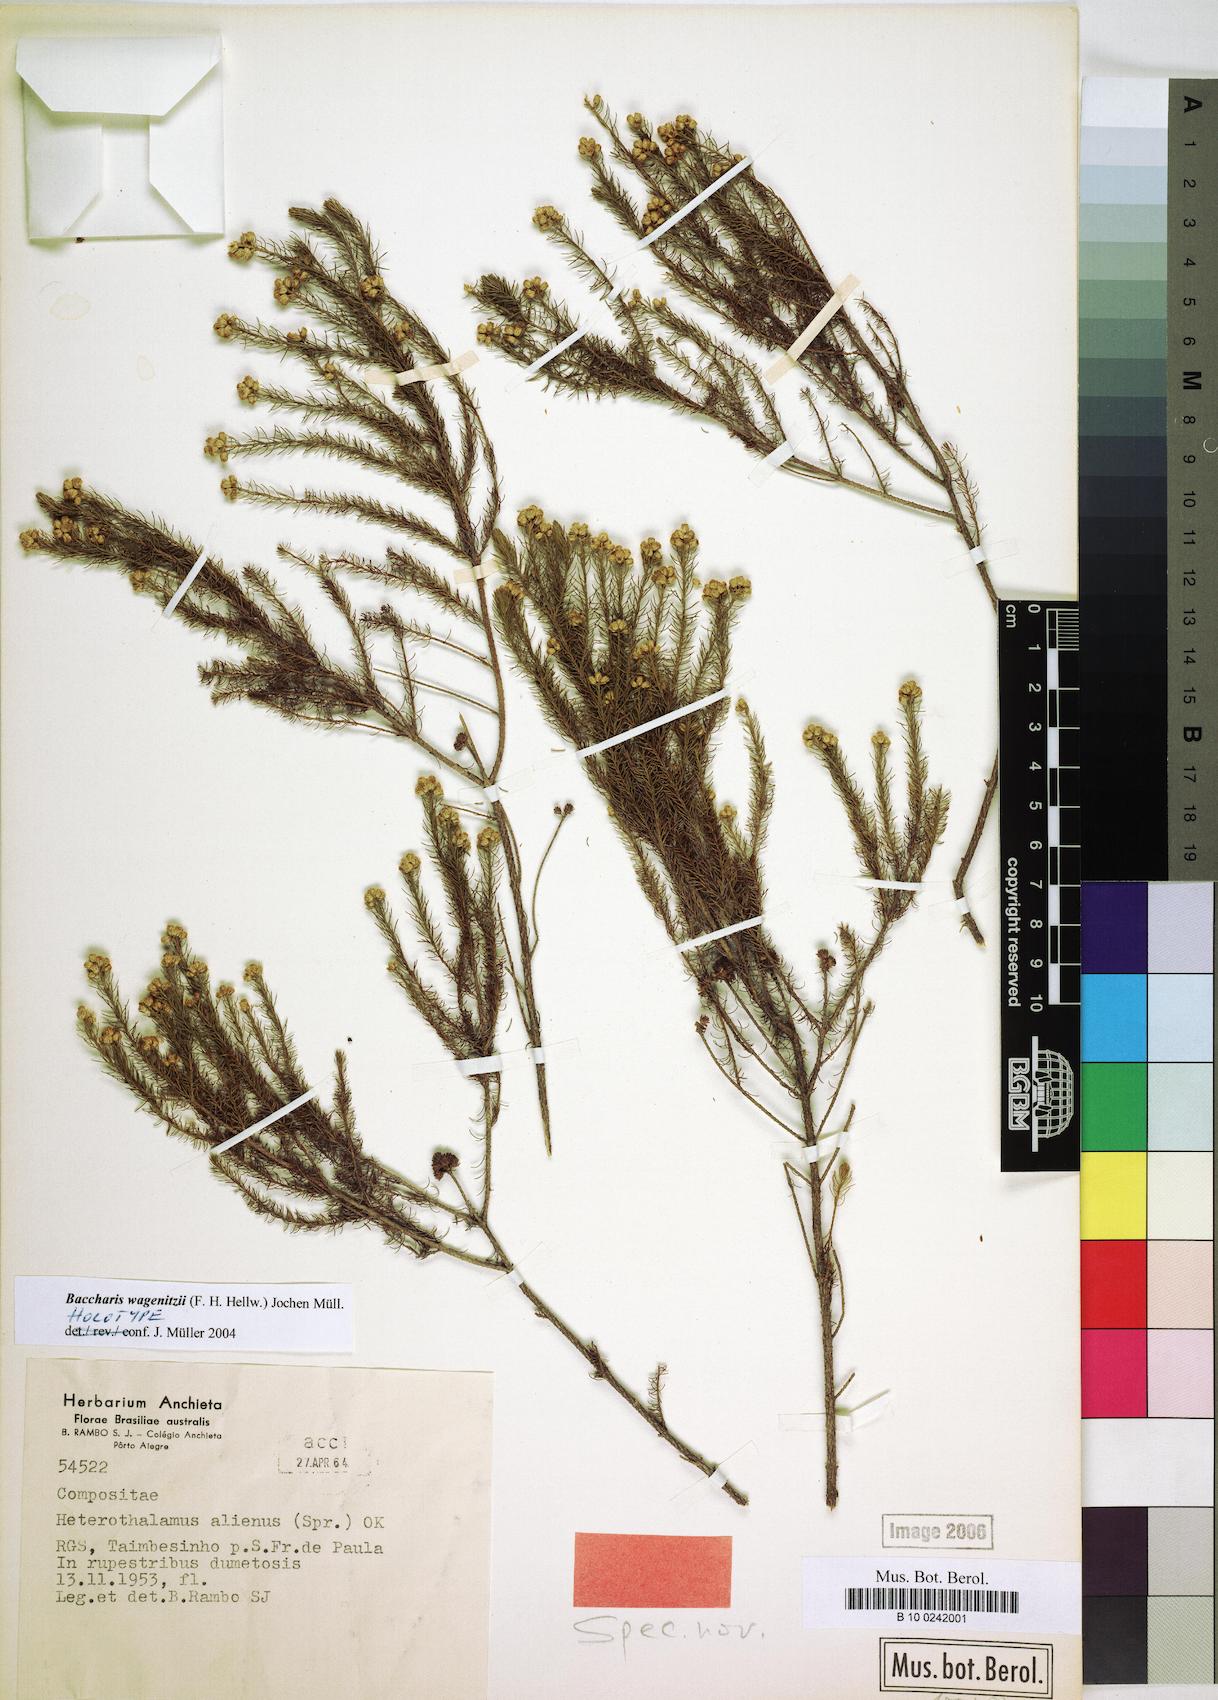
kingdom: Plantae
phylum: Tracheophyta
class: Magnoliopsida
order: Asterales
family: Asteraceae
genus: Baccharis
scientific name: Baccharis wagenitzii
